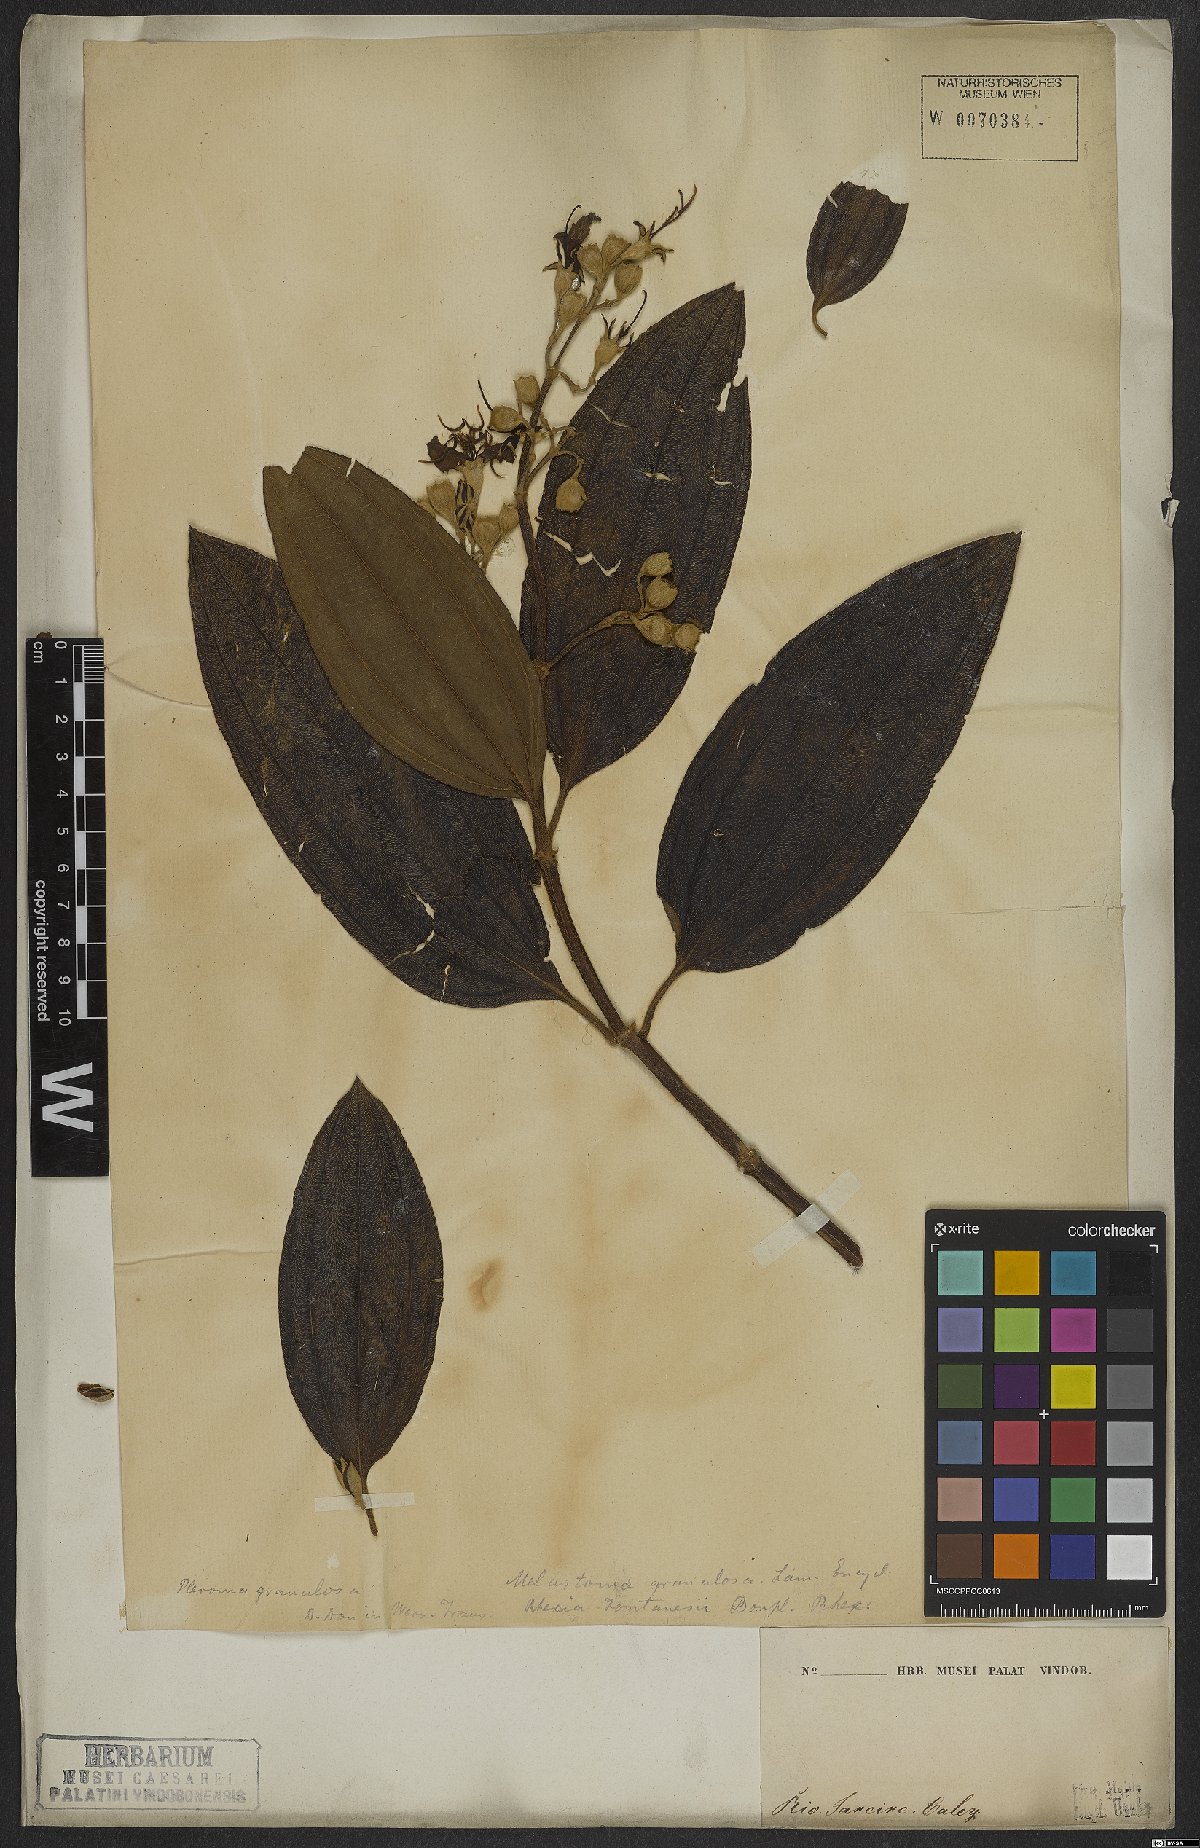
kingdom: Plantae
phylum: Tracheophyta
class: Magnoliopsida
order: Myrtales
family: Melastomataceae
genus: Pleroma
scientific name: Pleroma granulosum
